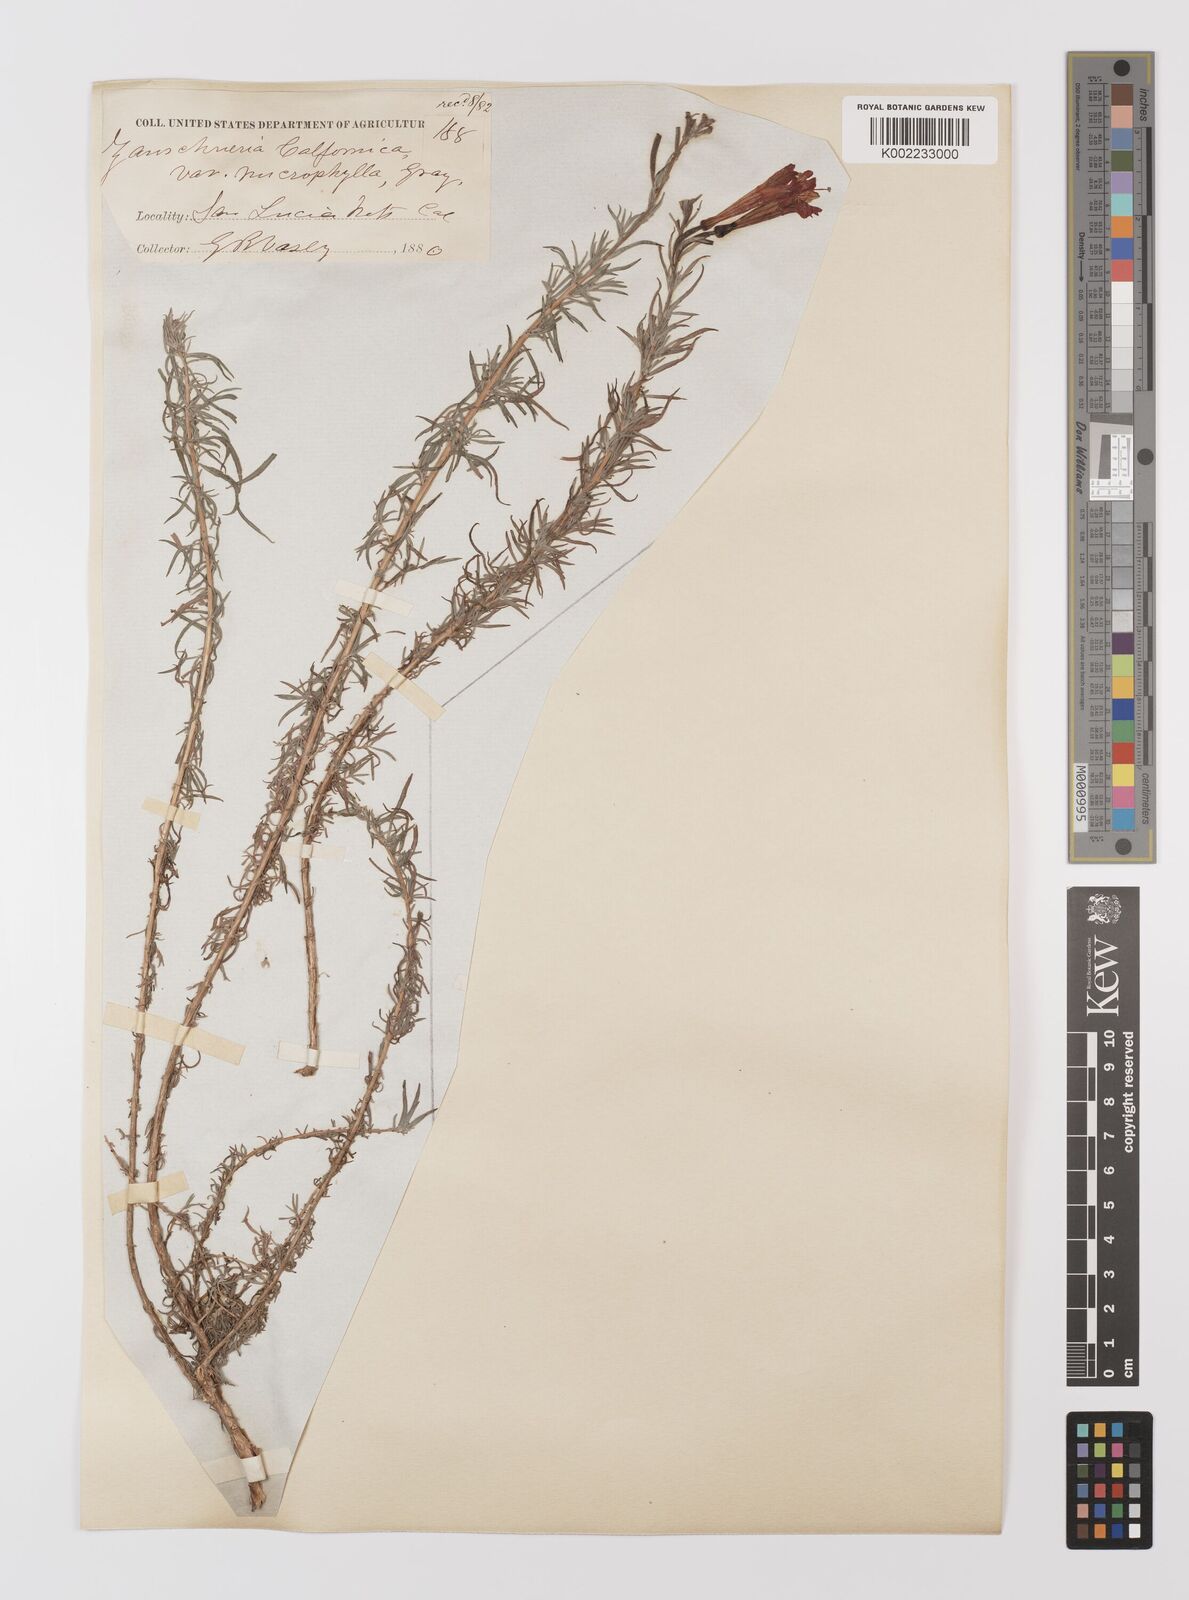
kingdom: Plantae
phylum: Tracheophyta
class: Magnoliopsida
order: Myrtales
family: Onagraceae
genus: Epilobium
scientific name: Epilobium canum
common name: California-fuchsia
